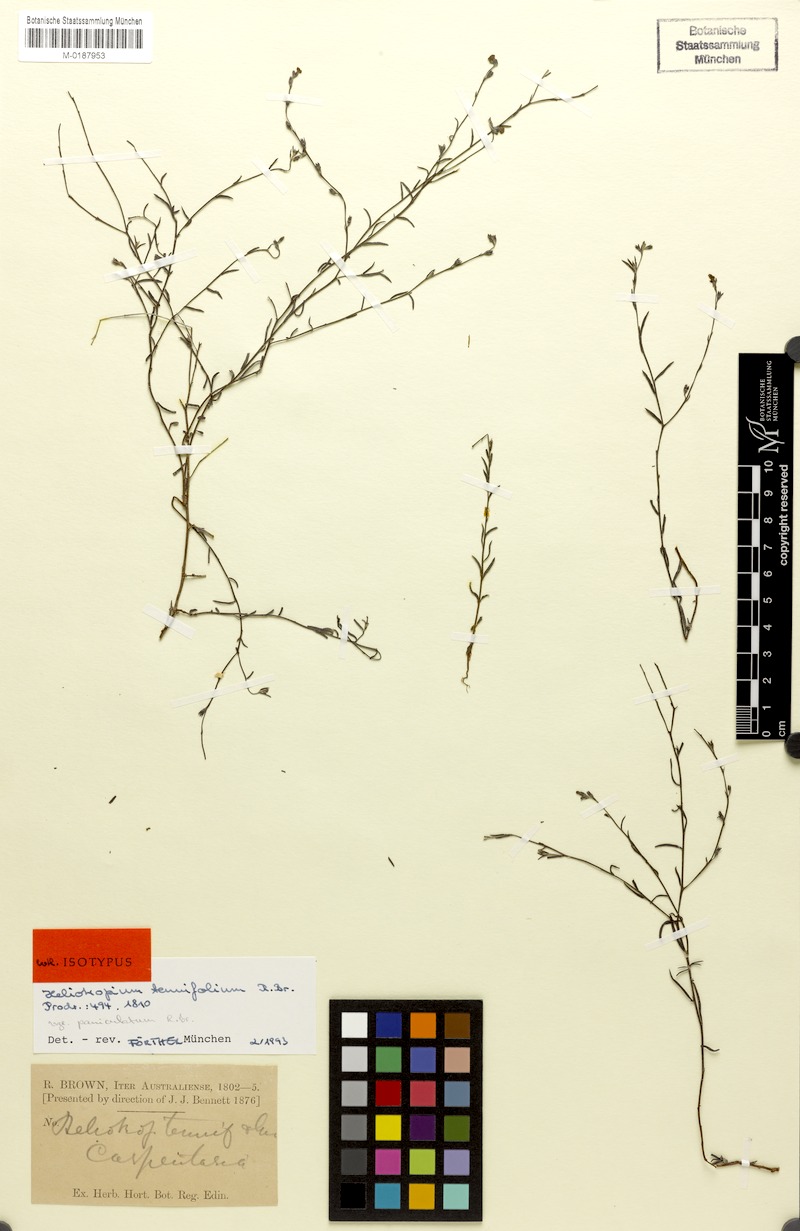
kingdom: Plantae
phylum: Tracheophyta
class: Magnoliopsida
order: Boraginales
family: Heliotropiaceae
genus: Euploca
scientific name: Euploca tenuifolia
